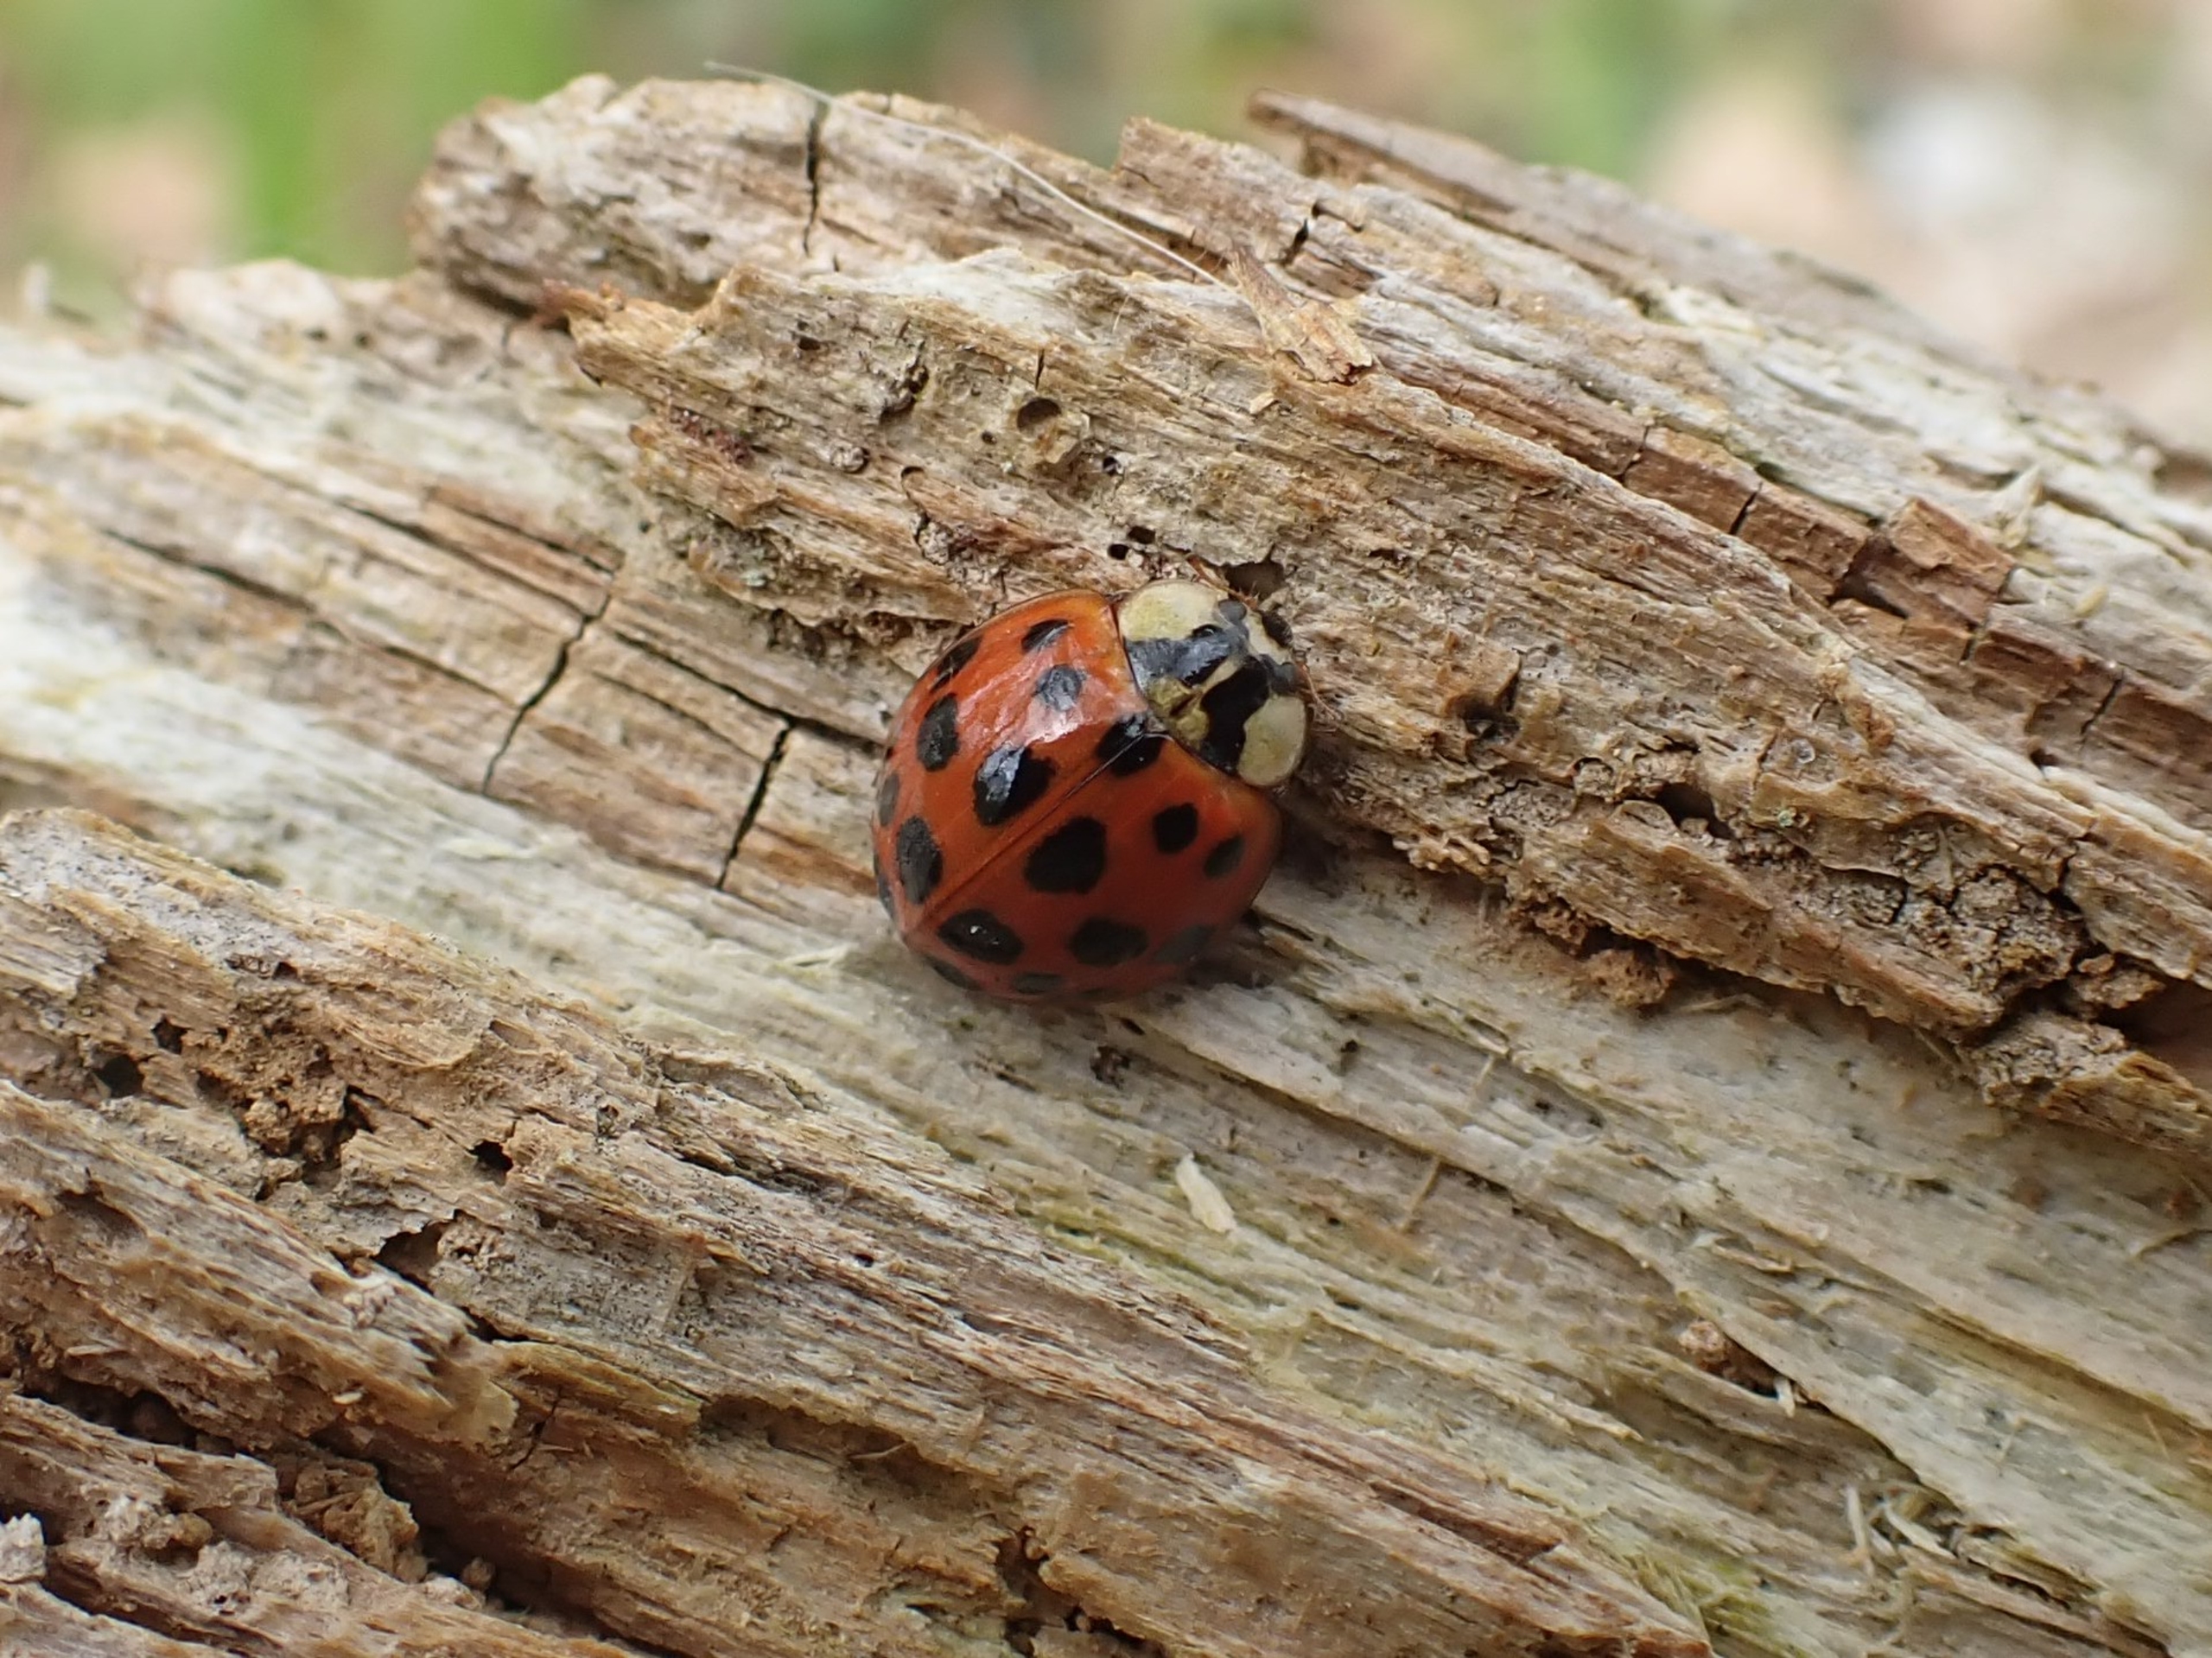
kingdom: Animalia
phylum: Arthropoda
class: Insecta
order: Coleoptera
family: Coccinellidae
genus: Harmonia
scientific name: Harmonia axyridis
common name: Harlekinmariehøne
